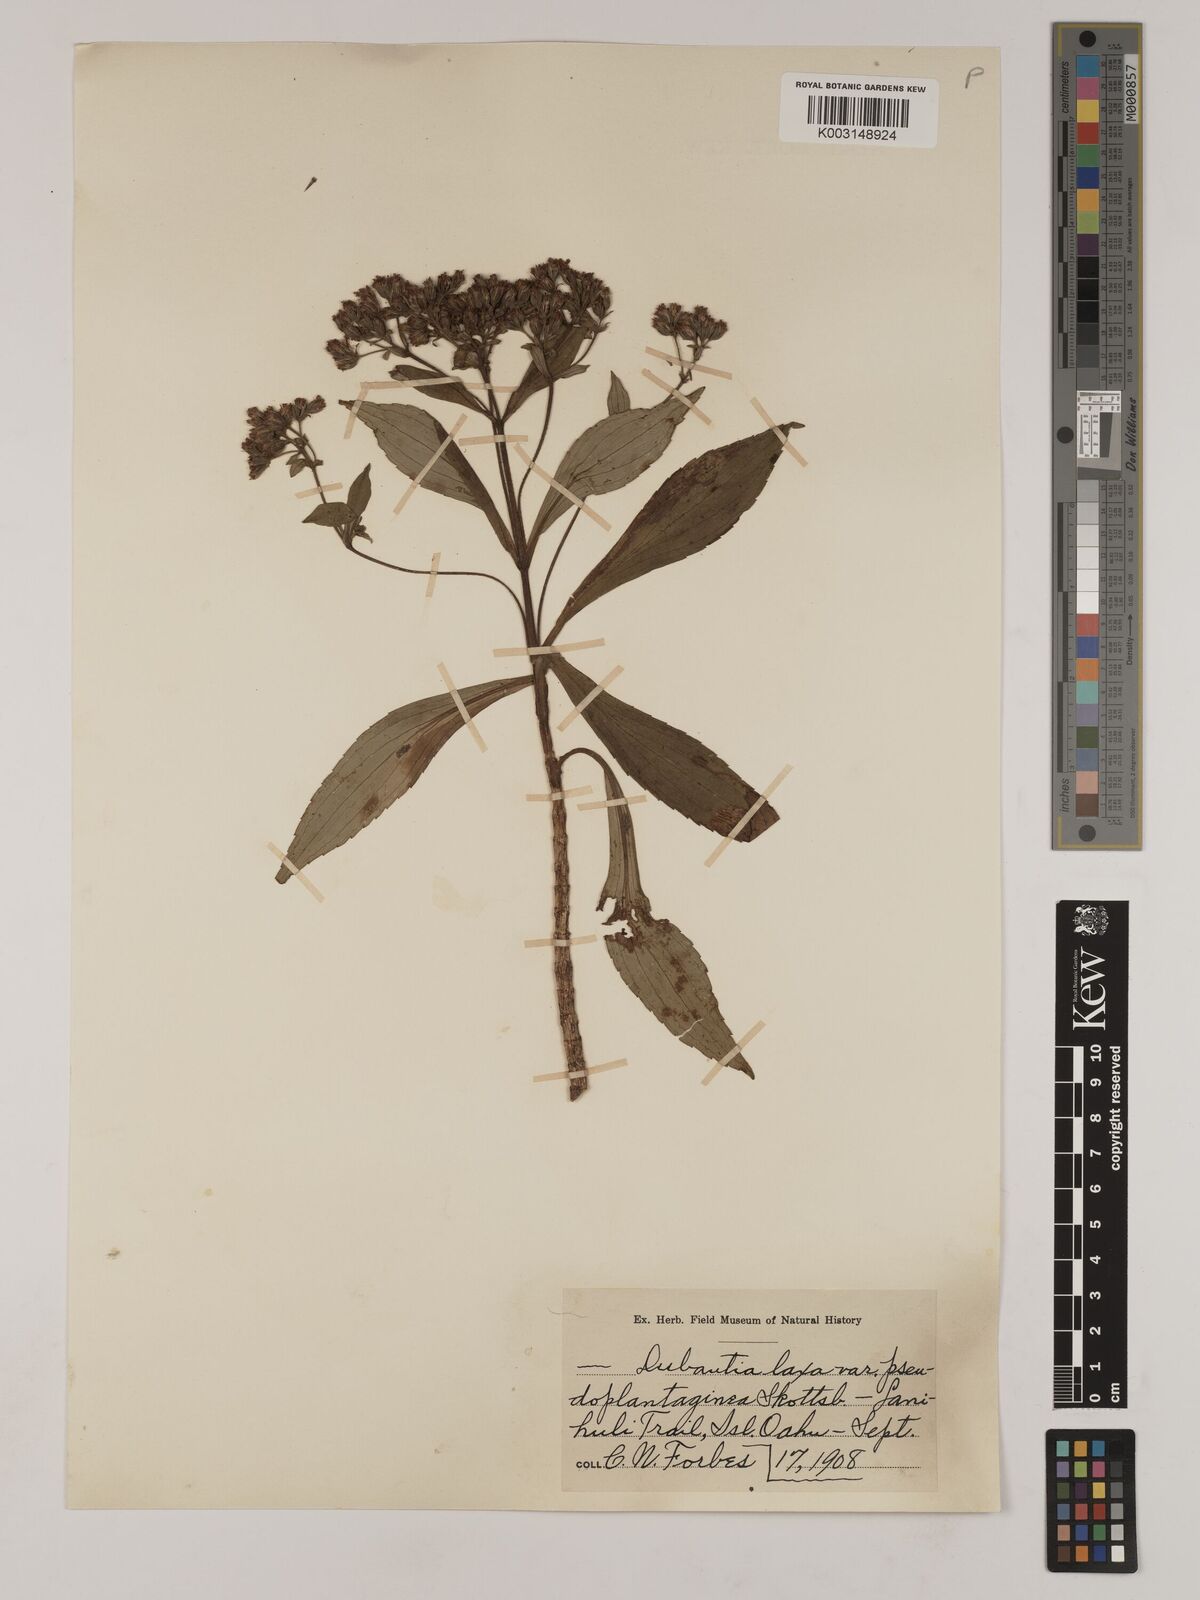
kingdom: Plantae
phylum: Tracheophyta
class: Magnoliopsida
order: Asterales
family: Asteraceae
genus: Dubautia
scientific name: Dubautia laxa
